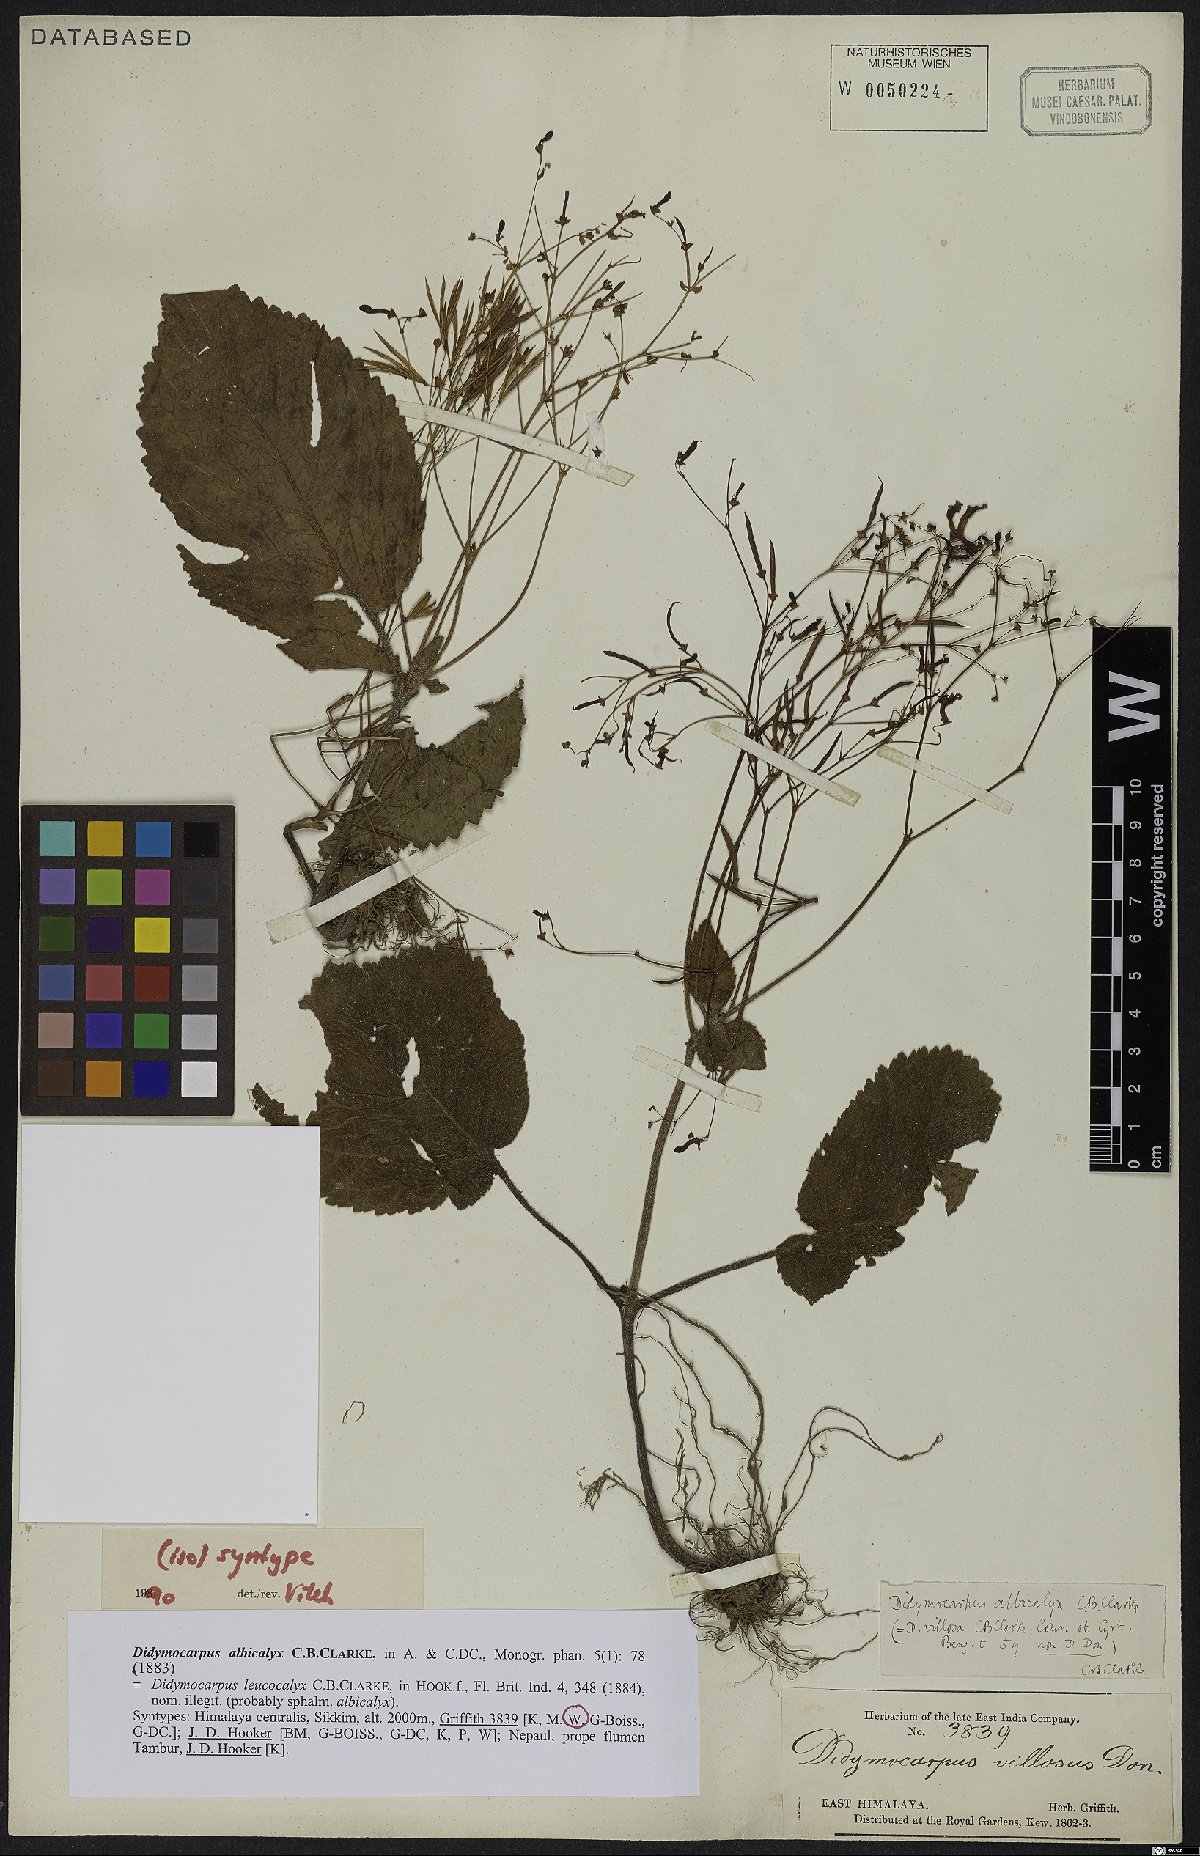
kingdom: Plantae
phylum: Tracheophyta
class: Magnoliopsida
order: Lamiales
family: Gesneriaceae
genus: Didymocarpus
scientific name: Didymocarpus albicalyx
